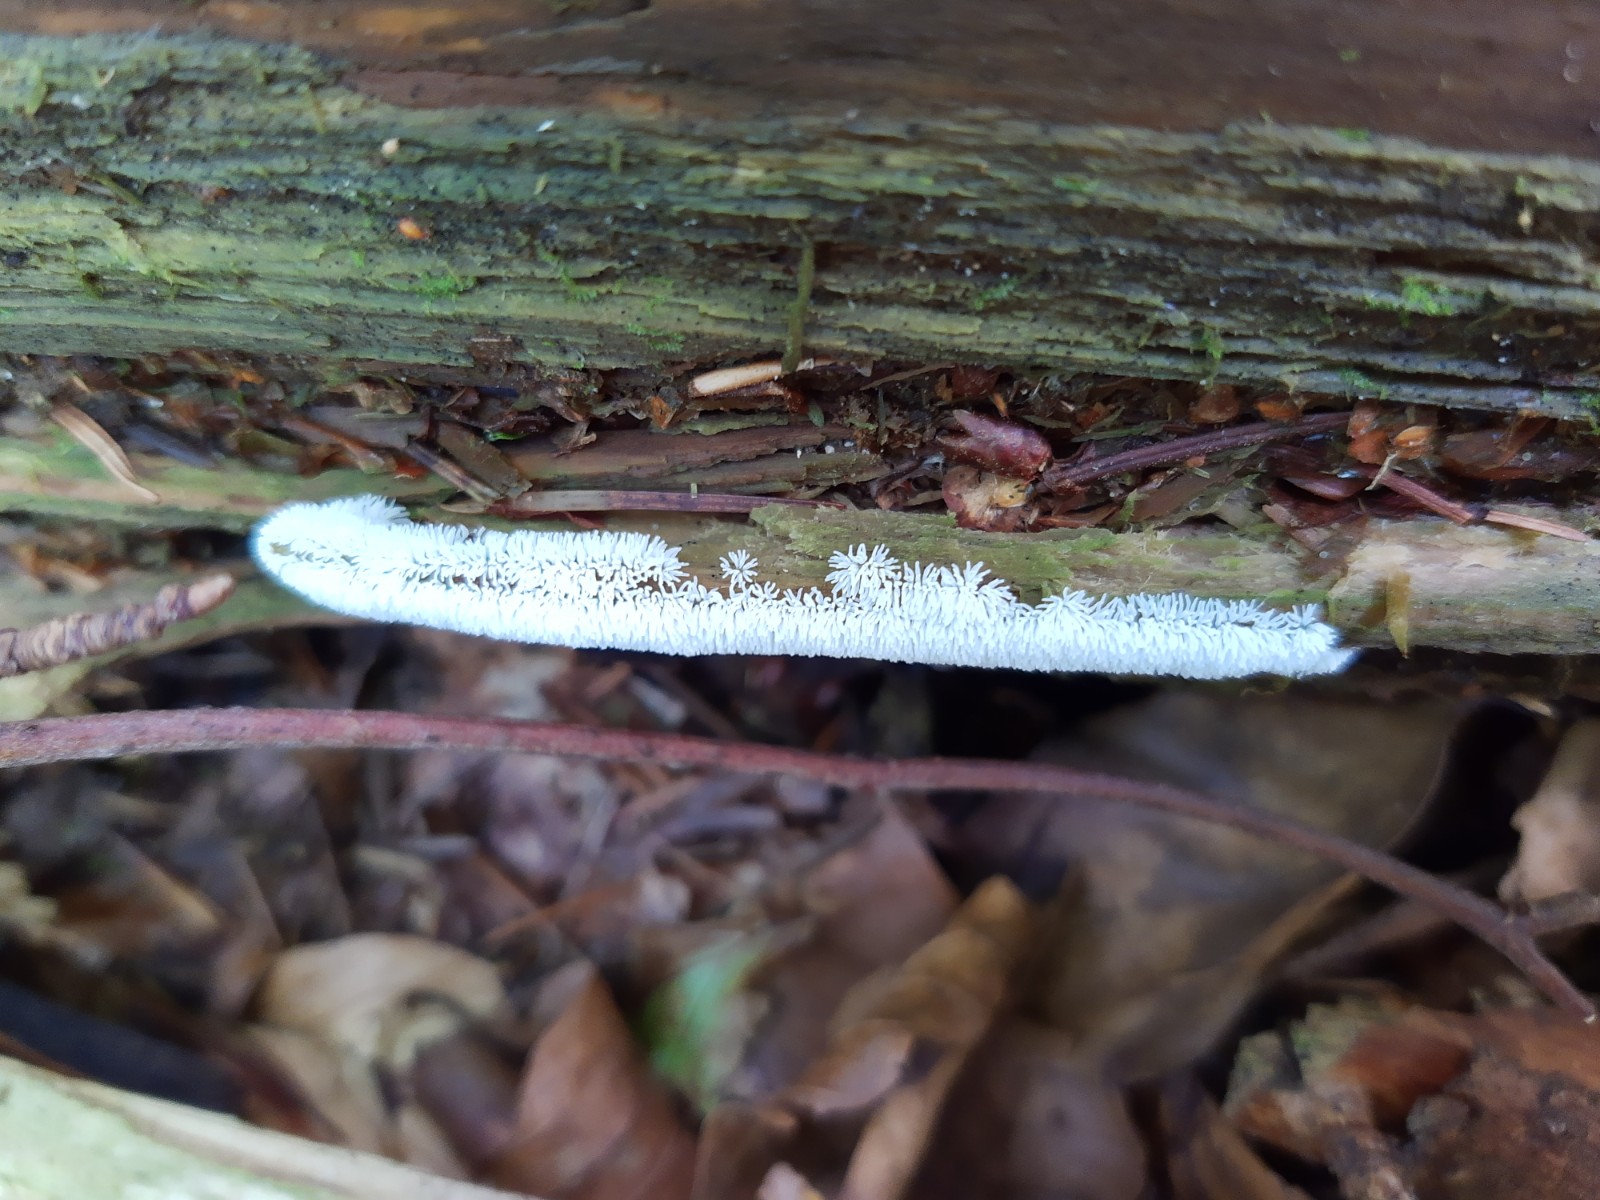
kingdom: Protozoa
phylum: Mycetozoa
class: Protosteliomycetes
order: Ceratiomyxales
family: Ceratiomyxaceae
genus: Ceratiomyxa
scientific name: Ceratiomyxa fruticulosa
